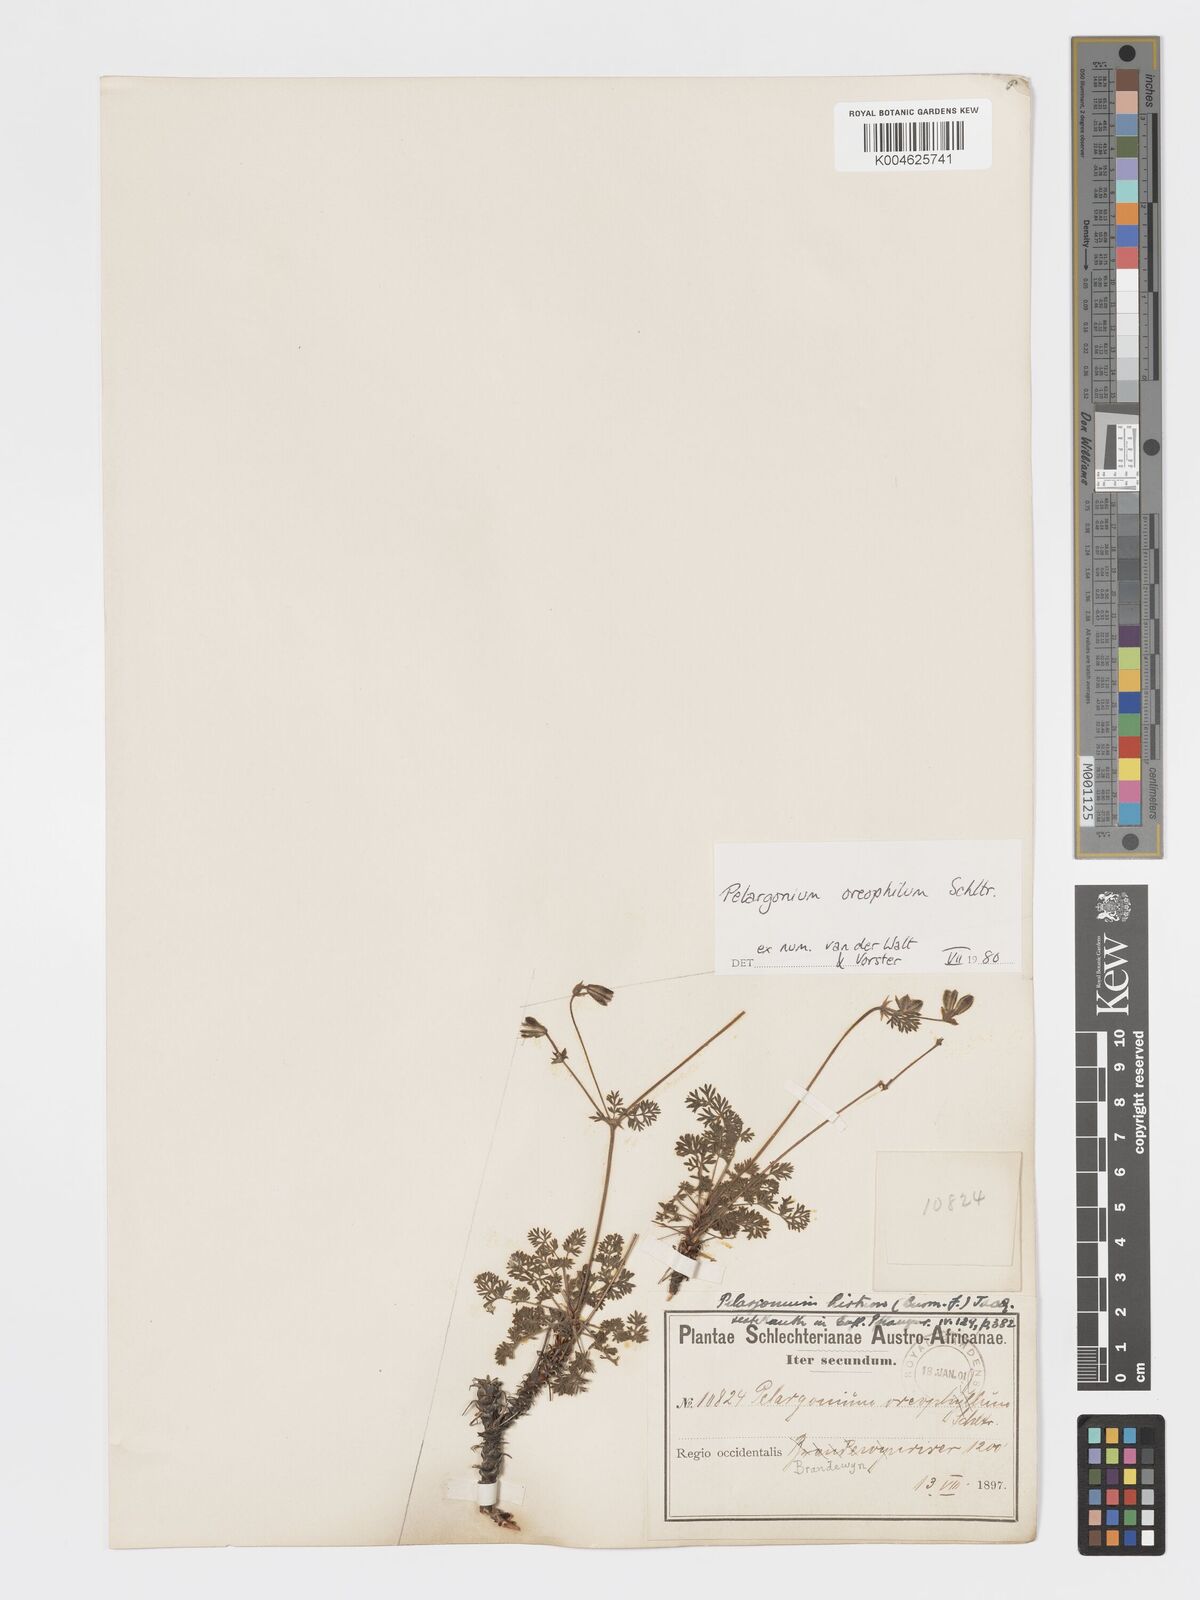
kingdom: Plantae
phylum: Tracheophyta
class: Magnoliopsida
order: Geraniales
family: Geraniaceae
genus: Pelargonium
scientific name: Pelargonium oreophilum
